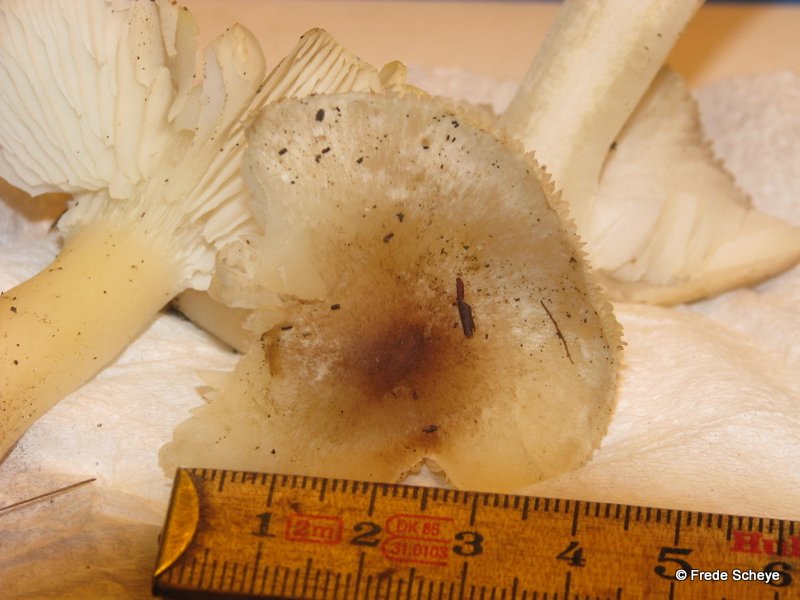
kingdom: Fungi
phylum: Basidiomycota
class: Agaricomycetes
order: Agaricales
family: Tricholomataceae
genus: Tricholoma
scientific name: Tricholoma scalpturatum
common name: gulplettet ridderhat
